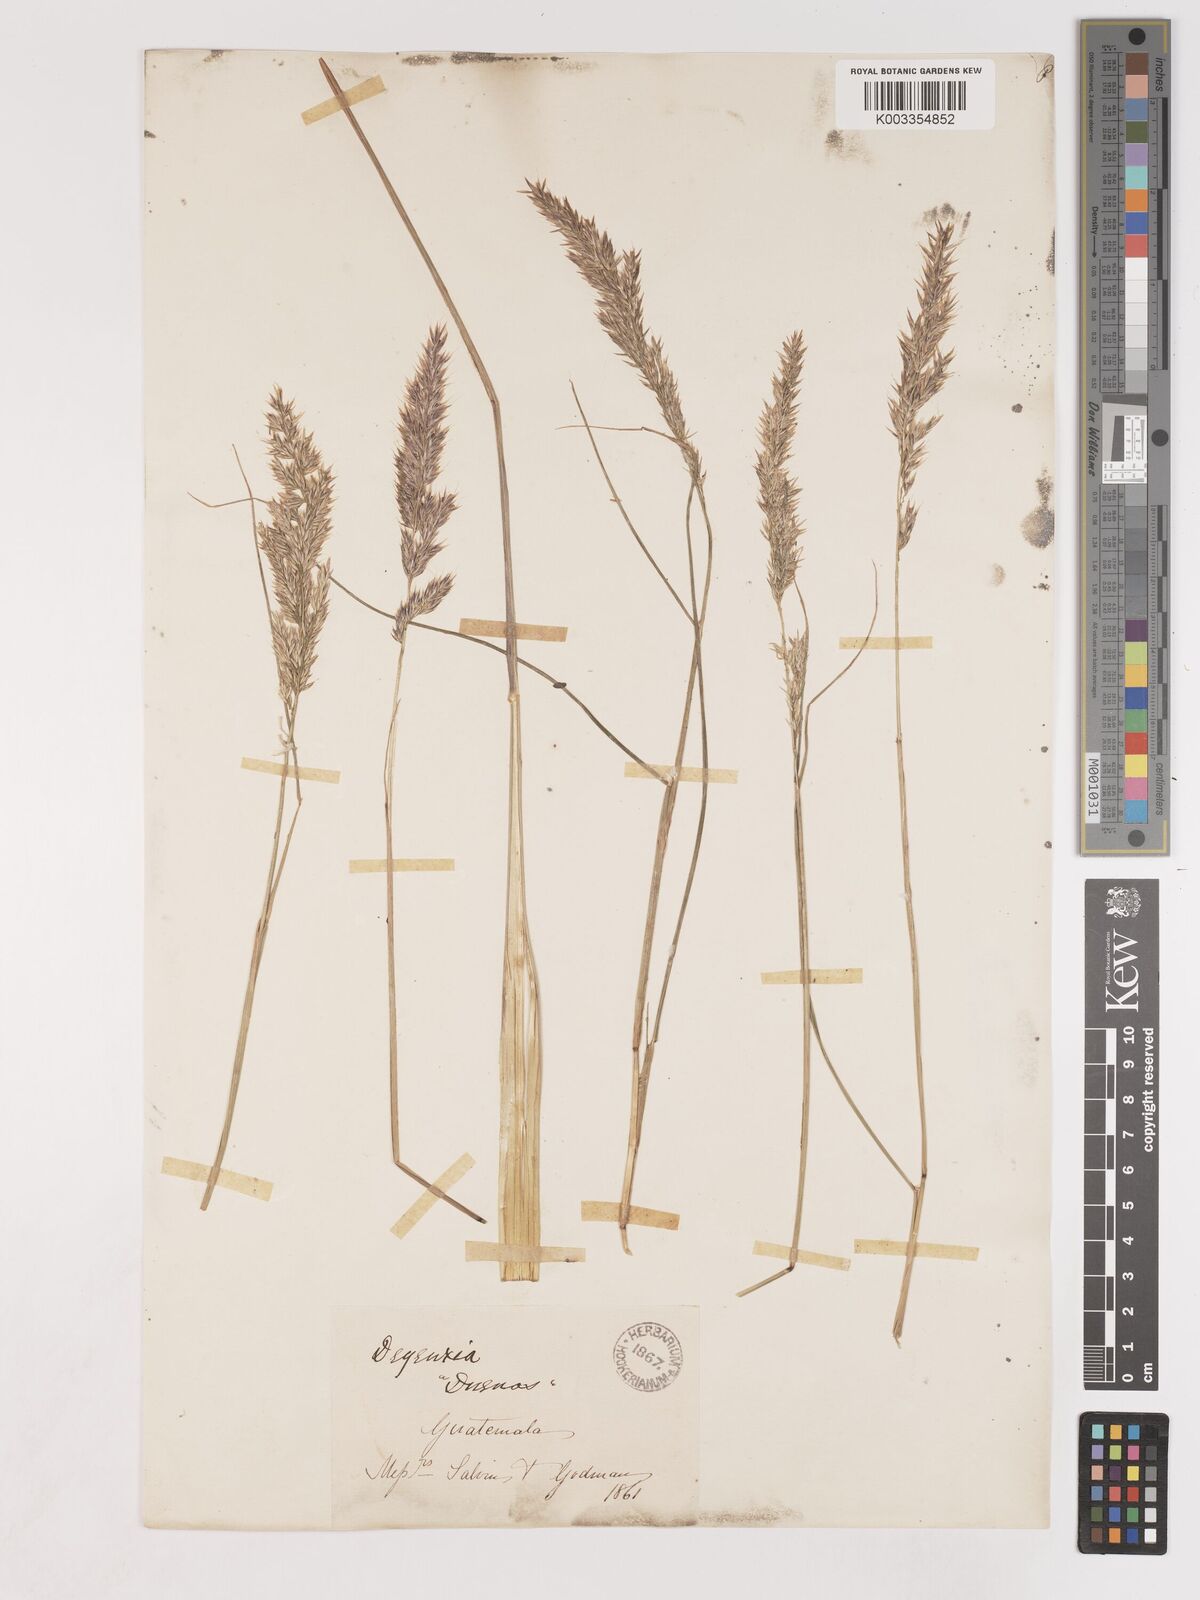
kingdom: Plantae
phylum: Tracheophyta
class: Liliopsida
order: Poales
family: Poaceae
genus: Calamagrostis
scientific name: Calamagrostis
